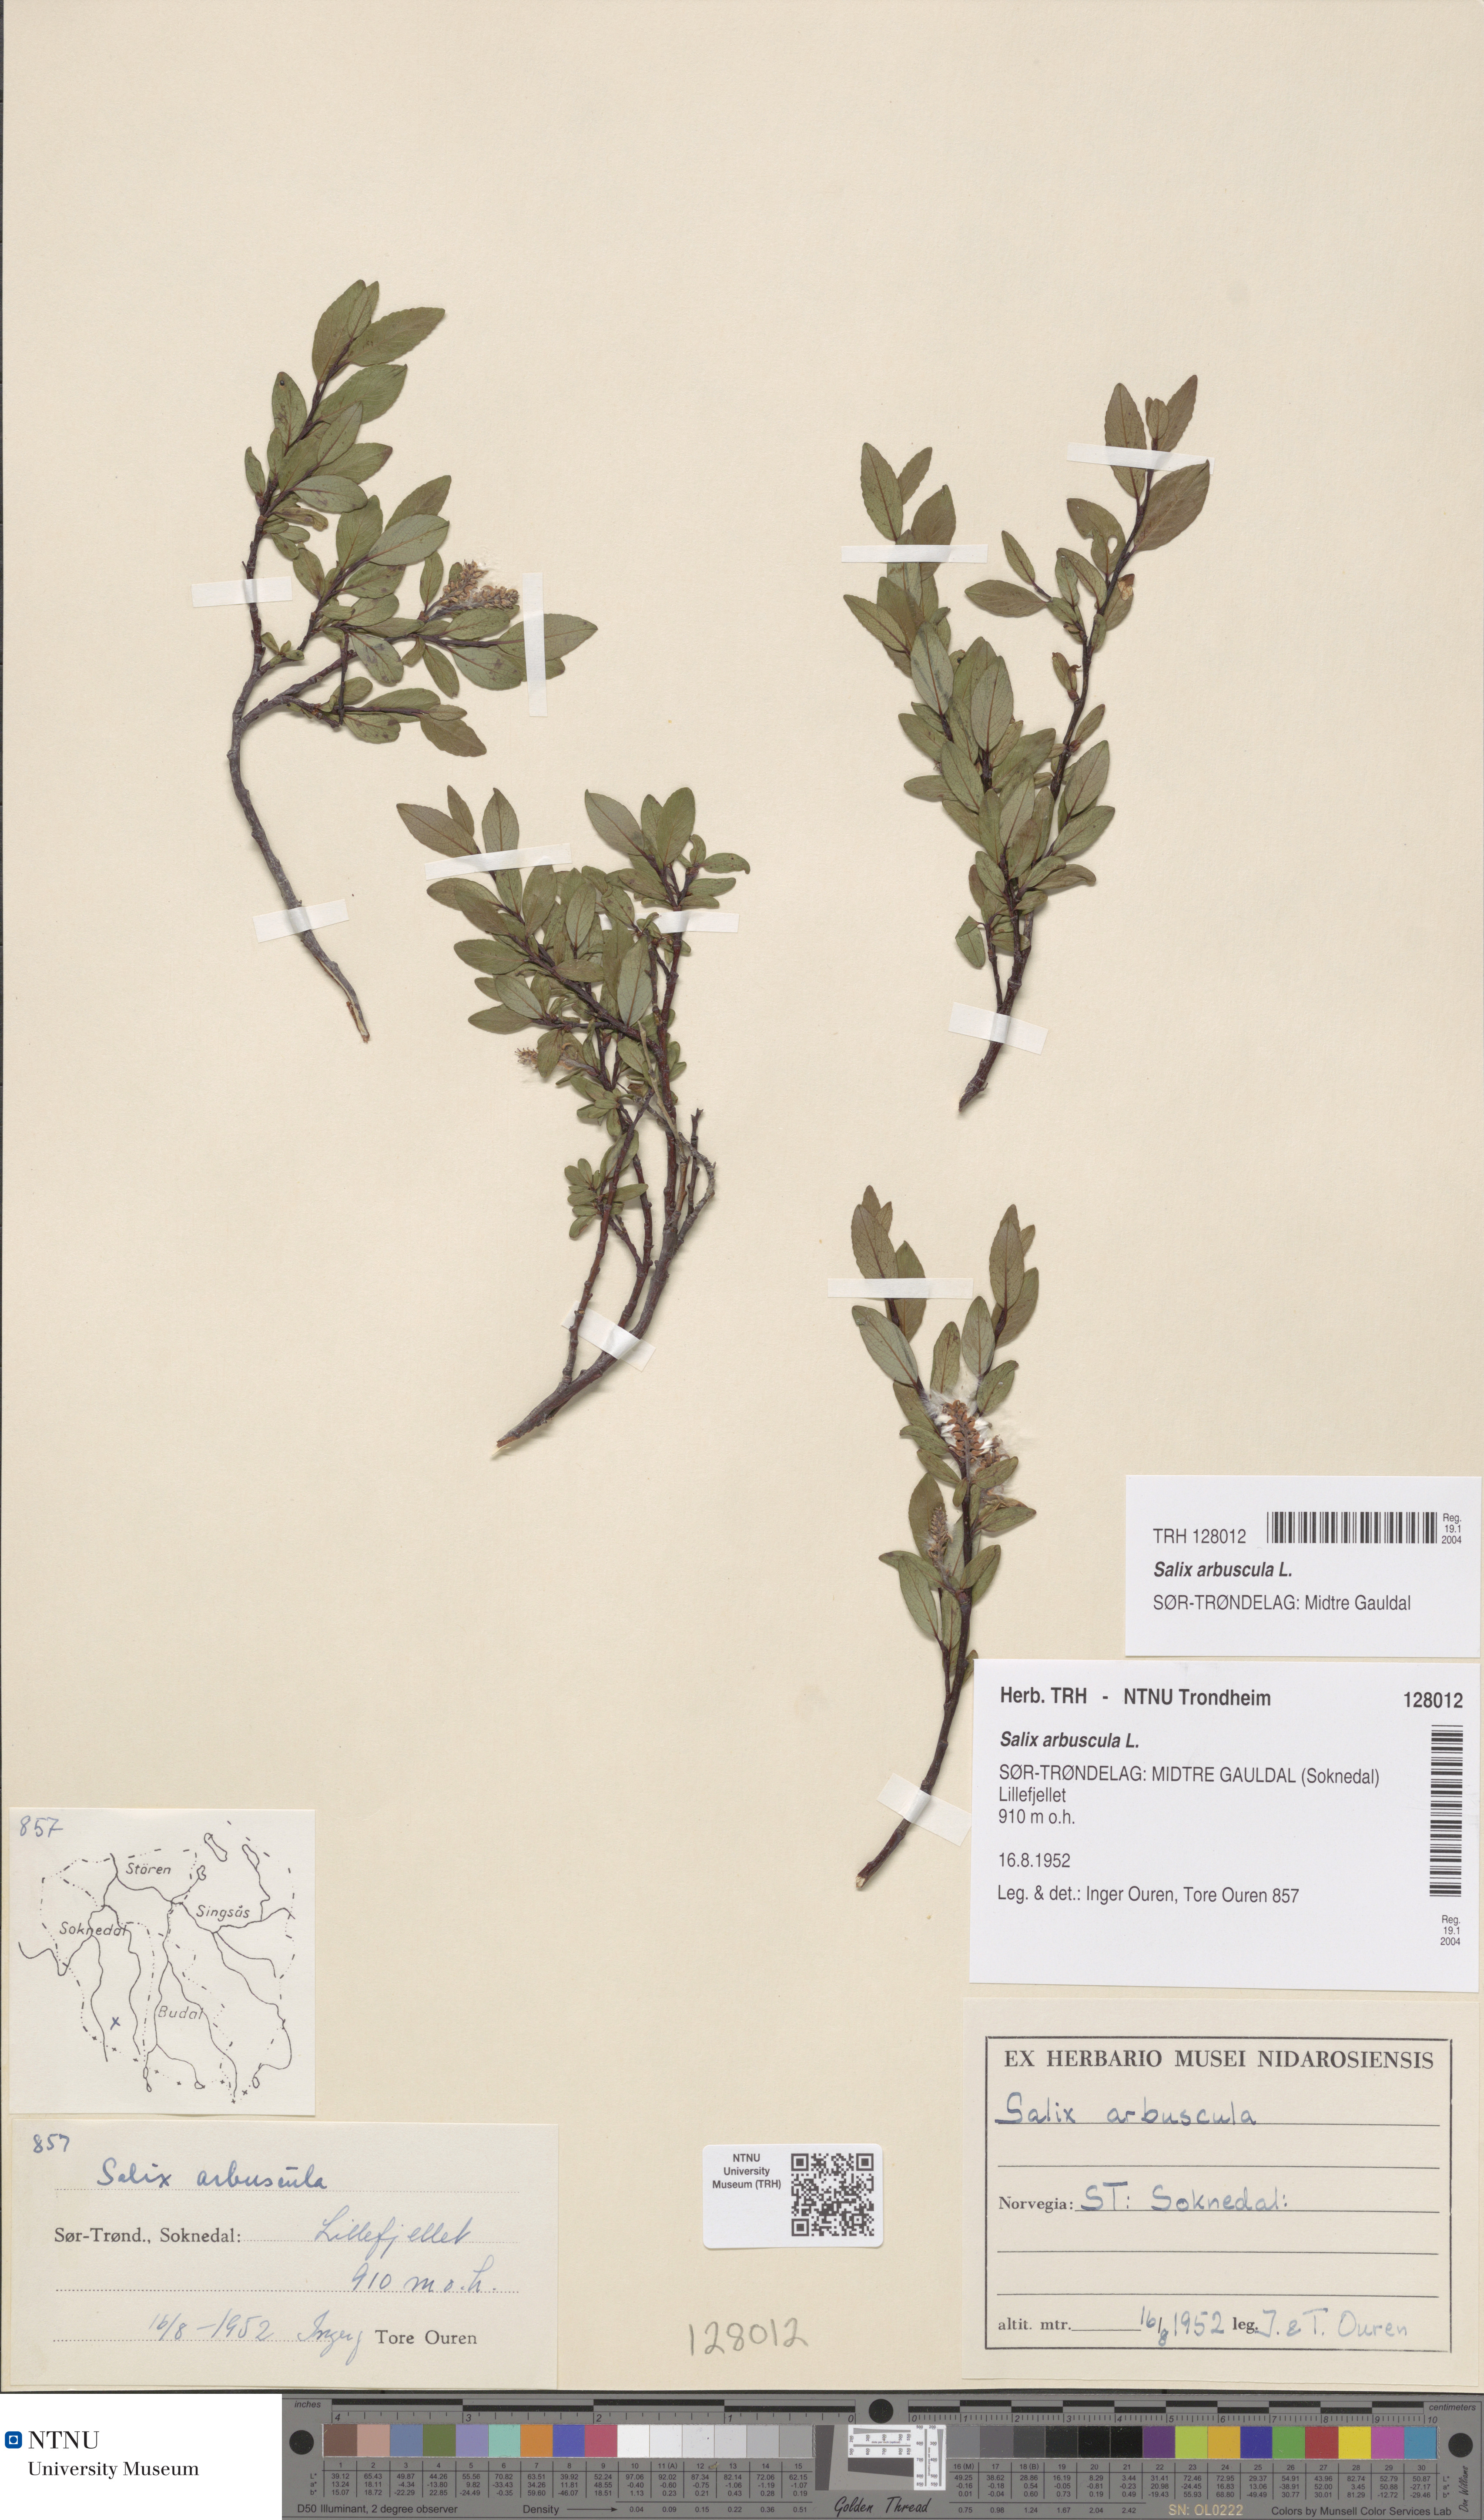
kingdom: Plantae
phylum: Tracheophyta
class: Magnoliopsida
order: Malpighiales
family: Salicaceae
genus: Salix
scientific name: Salix arbuscula
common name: Mountain willow
